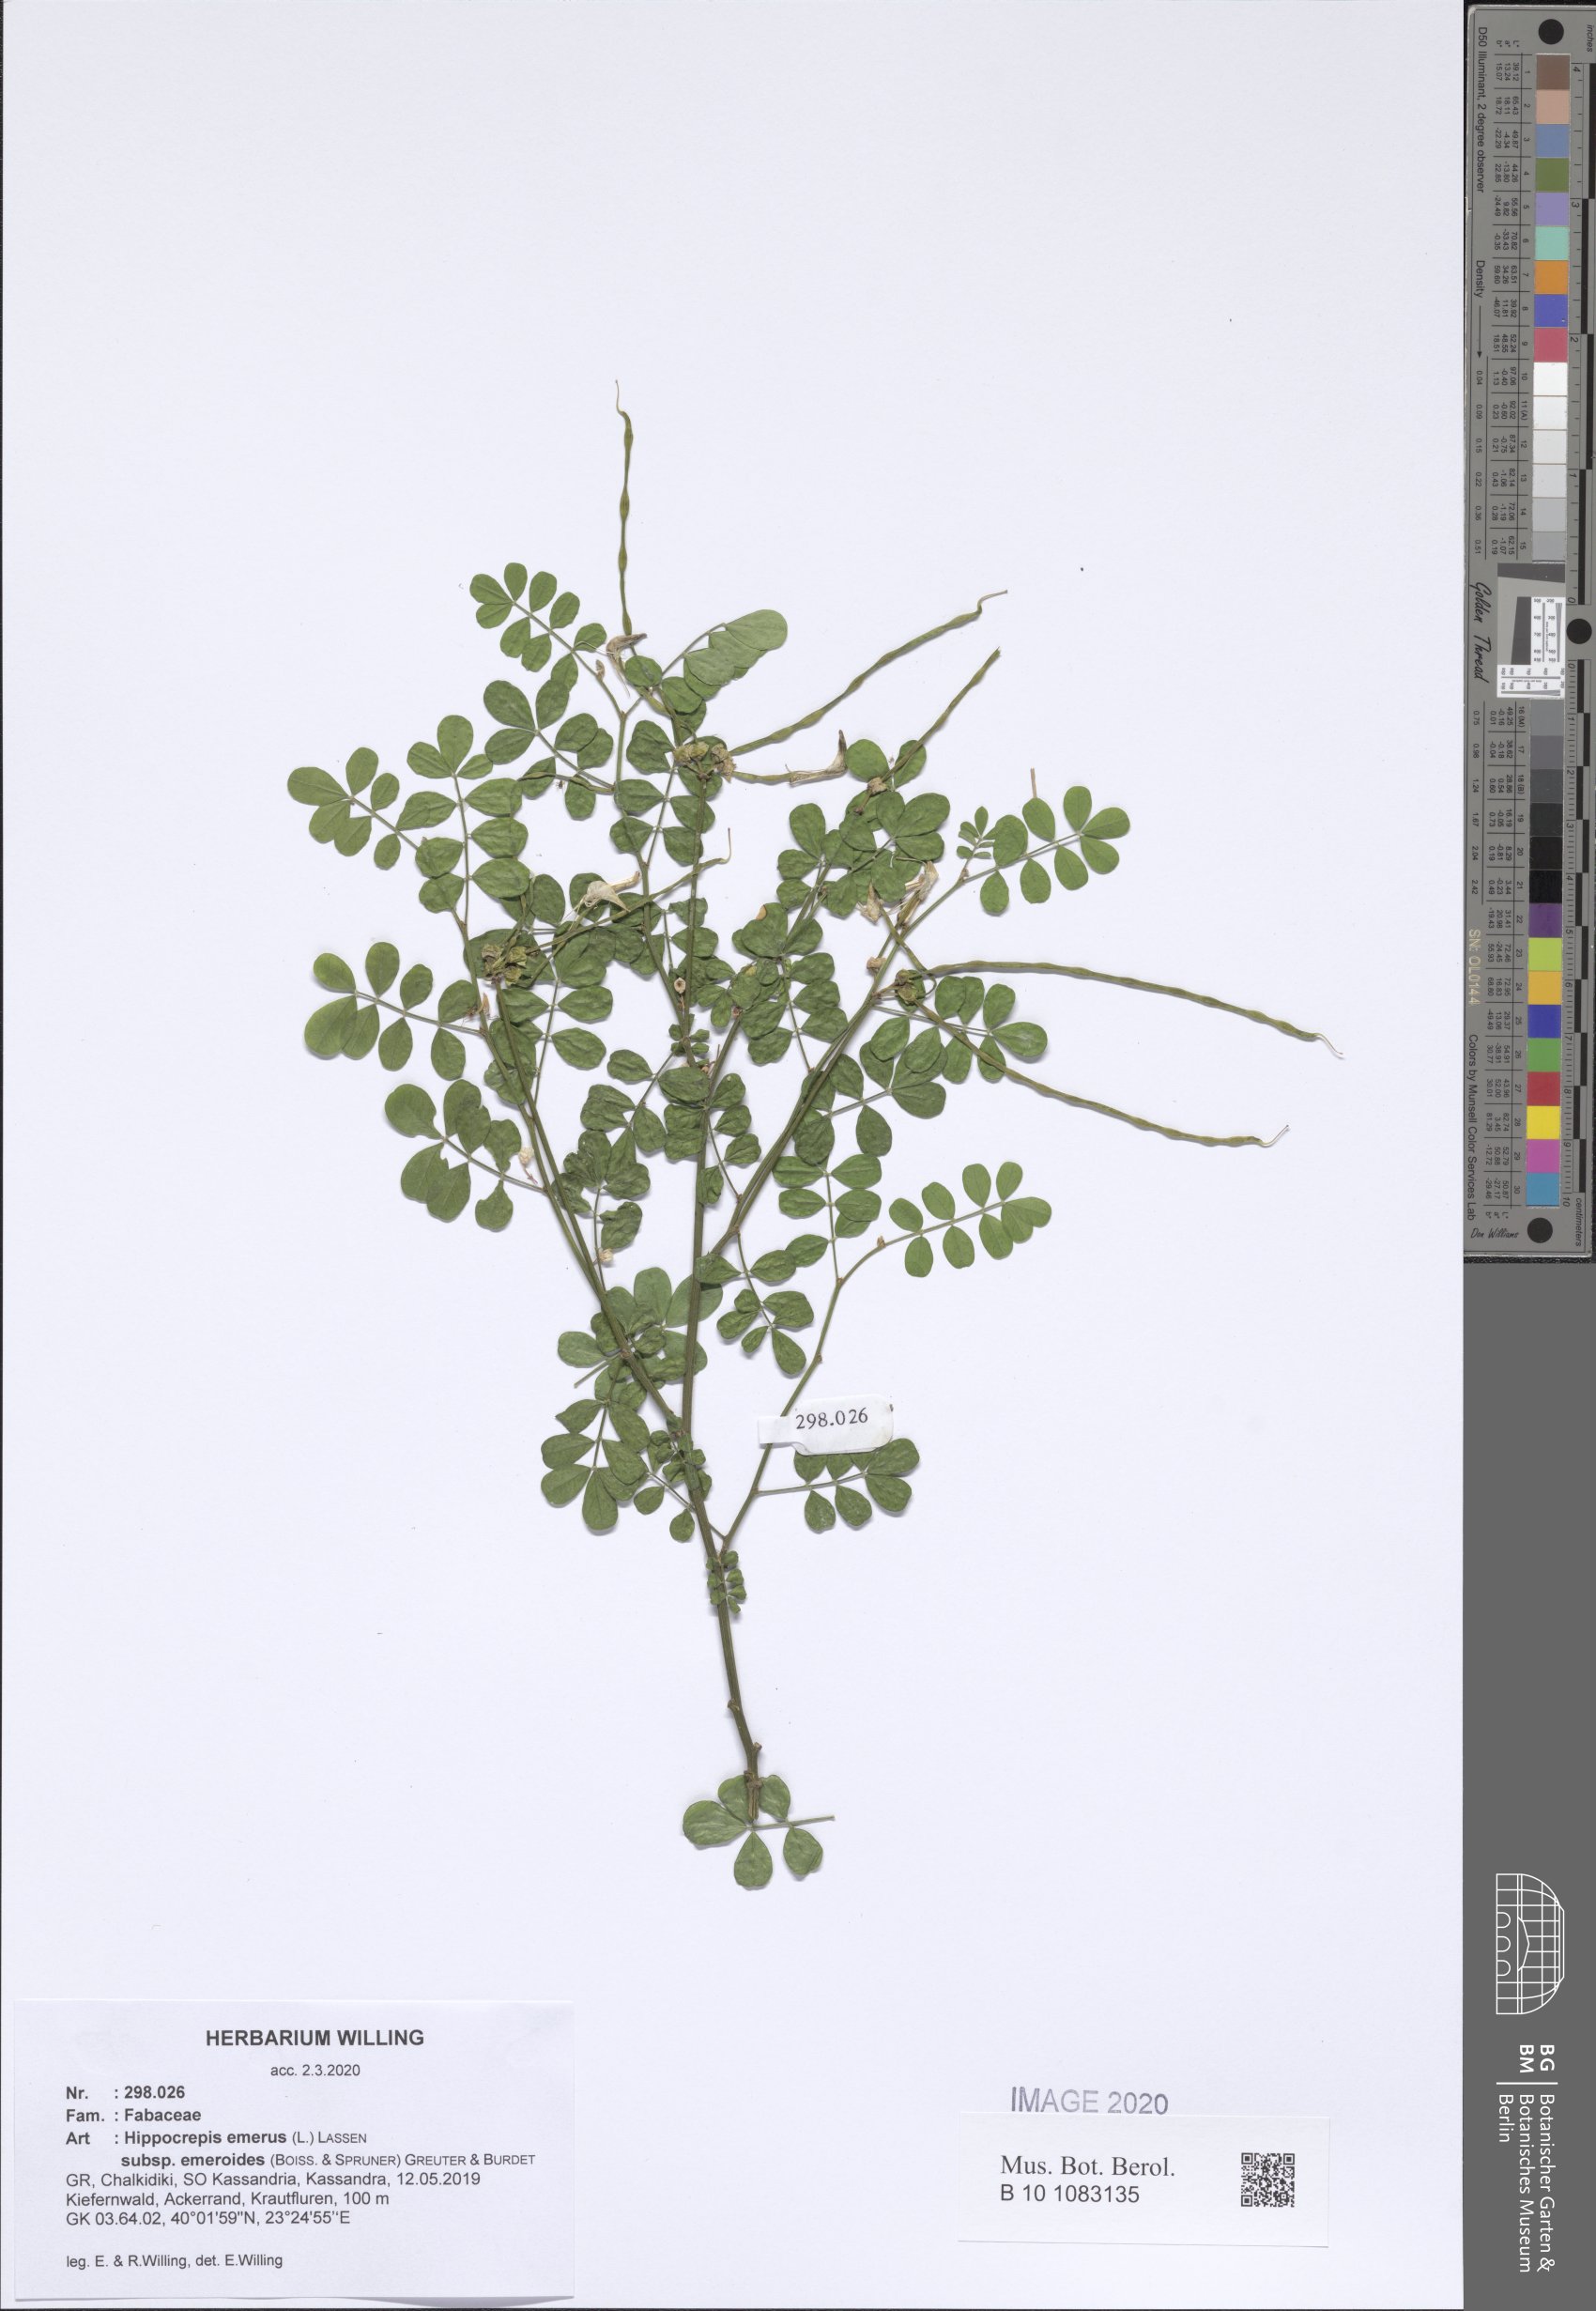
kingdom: Plantae
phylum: Tracheophyta
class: Magnoliopsida
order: Fabales
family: Fabaceae
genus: Hippocrepis
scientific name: Hippocrepis emerus
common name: Scorpion senna
